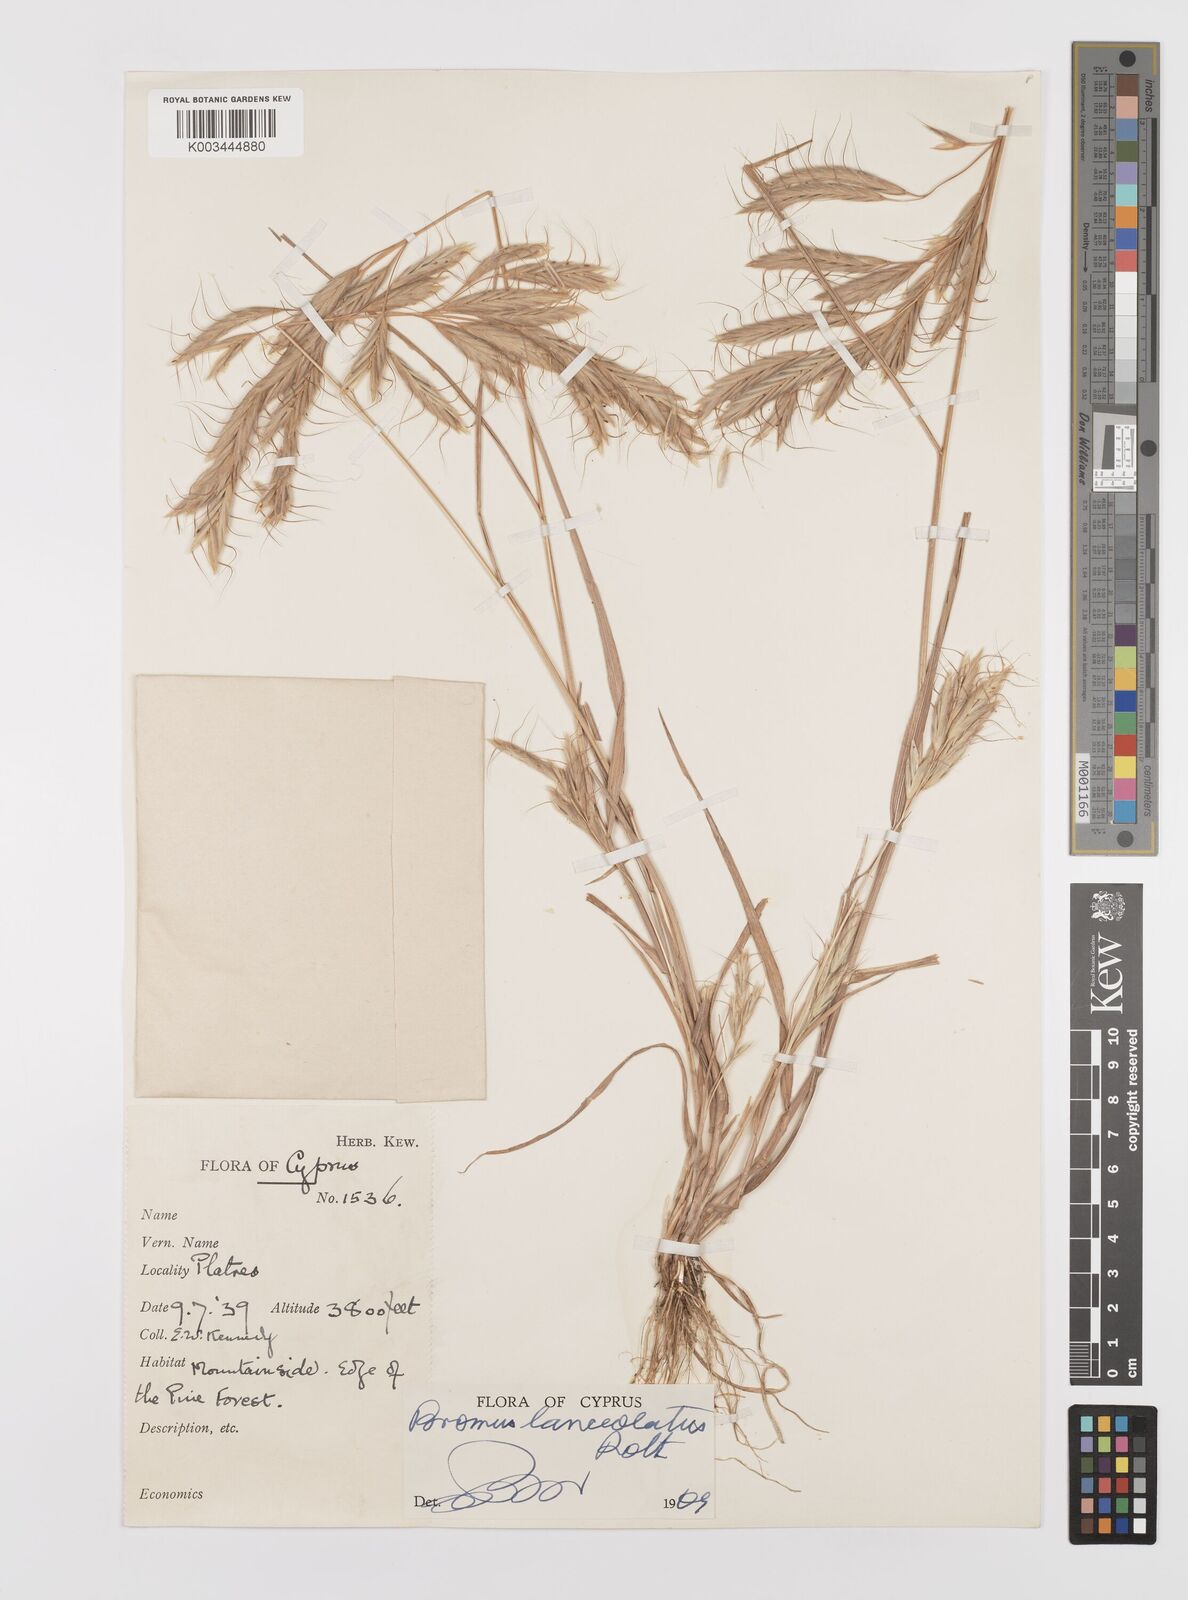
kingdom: Plantae
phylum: Tracheophyta
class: Liliopsida
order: Poales
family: Poaceae
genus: Bromus
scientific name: Bromus lanceolatus
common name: Mediterranean brome
